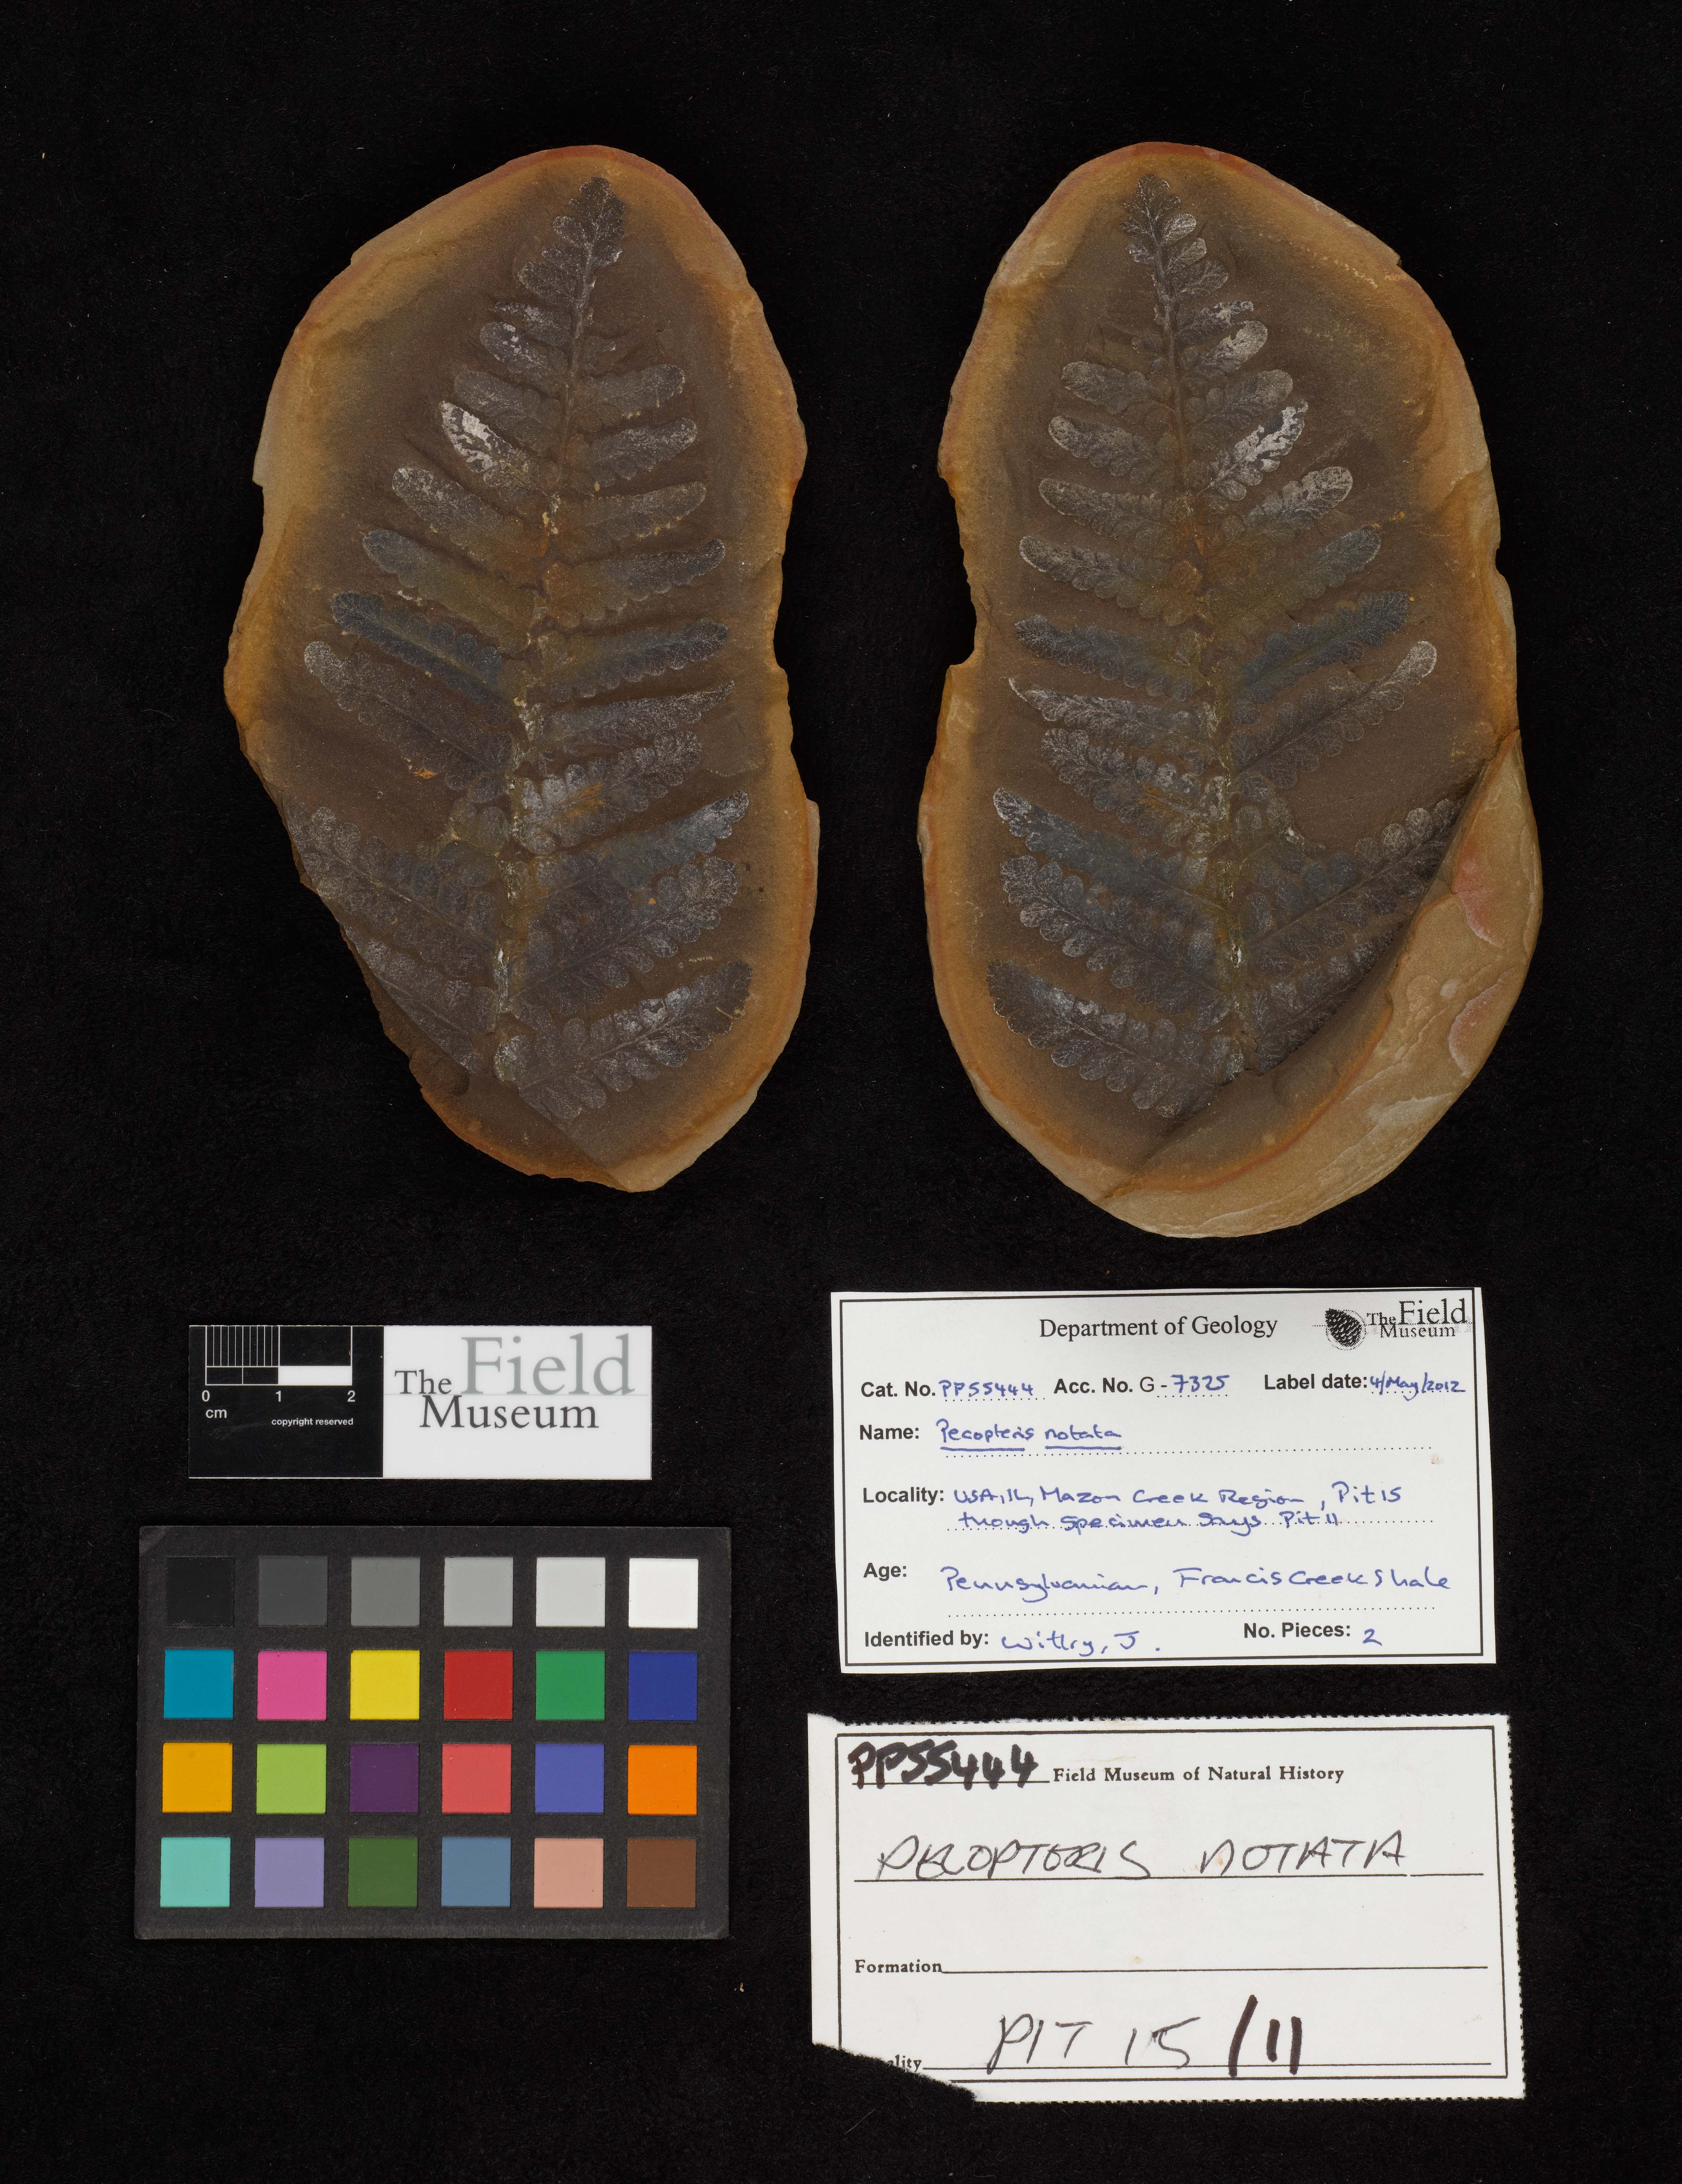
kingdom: Plantae
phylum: Tracheophyta
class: Polypodiopsida
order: Marattiales
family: Asterothecaceae
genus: Pecopteris
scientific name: Pecopteris
